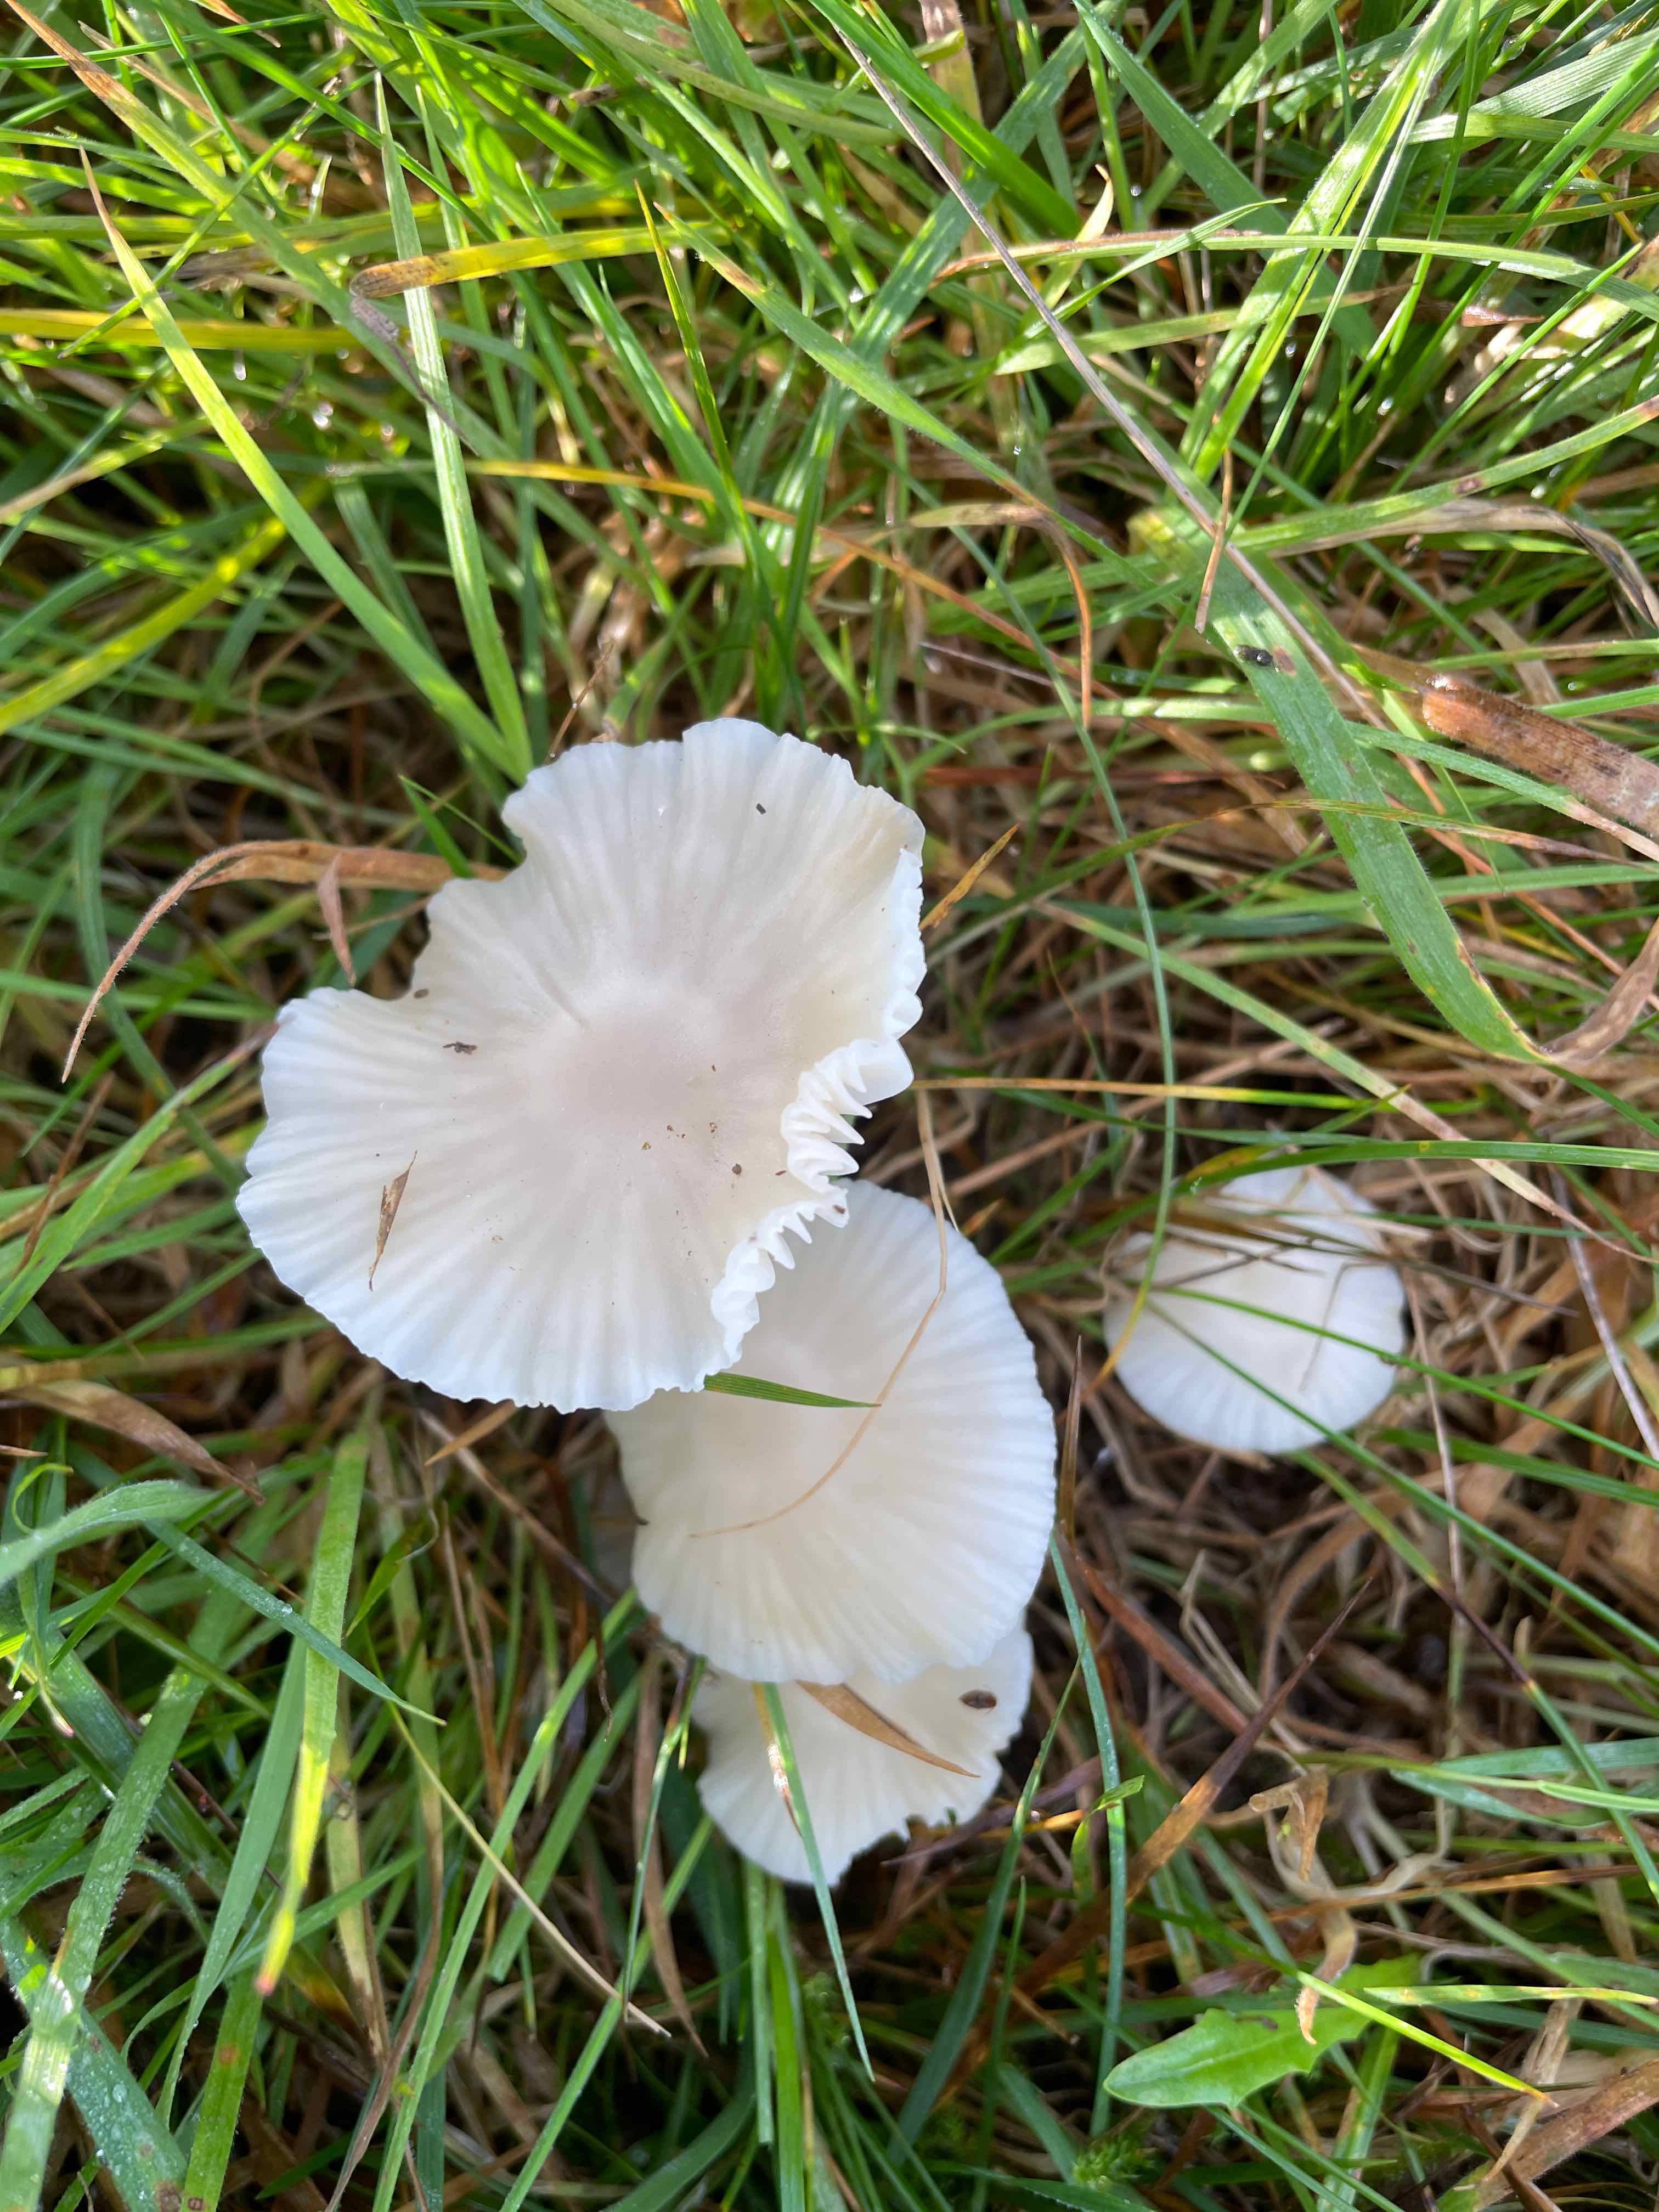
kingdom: Fungi
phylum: Basidiomycota
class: Agaricomycetes
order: Agaricales
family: Hygrophoraceae
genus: Cuphophyllus
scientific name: Cuphophyllus virgineus
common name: snehvid vokshat
